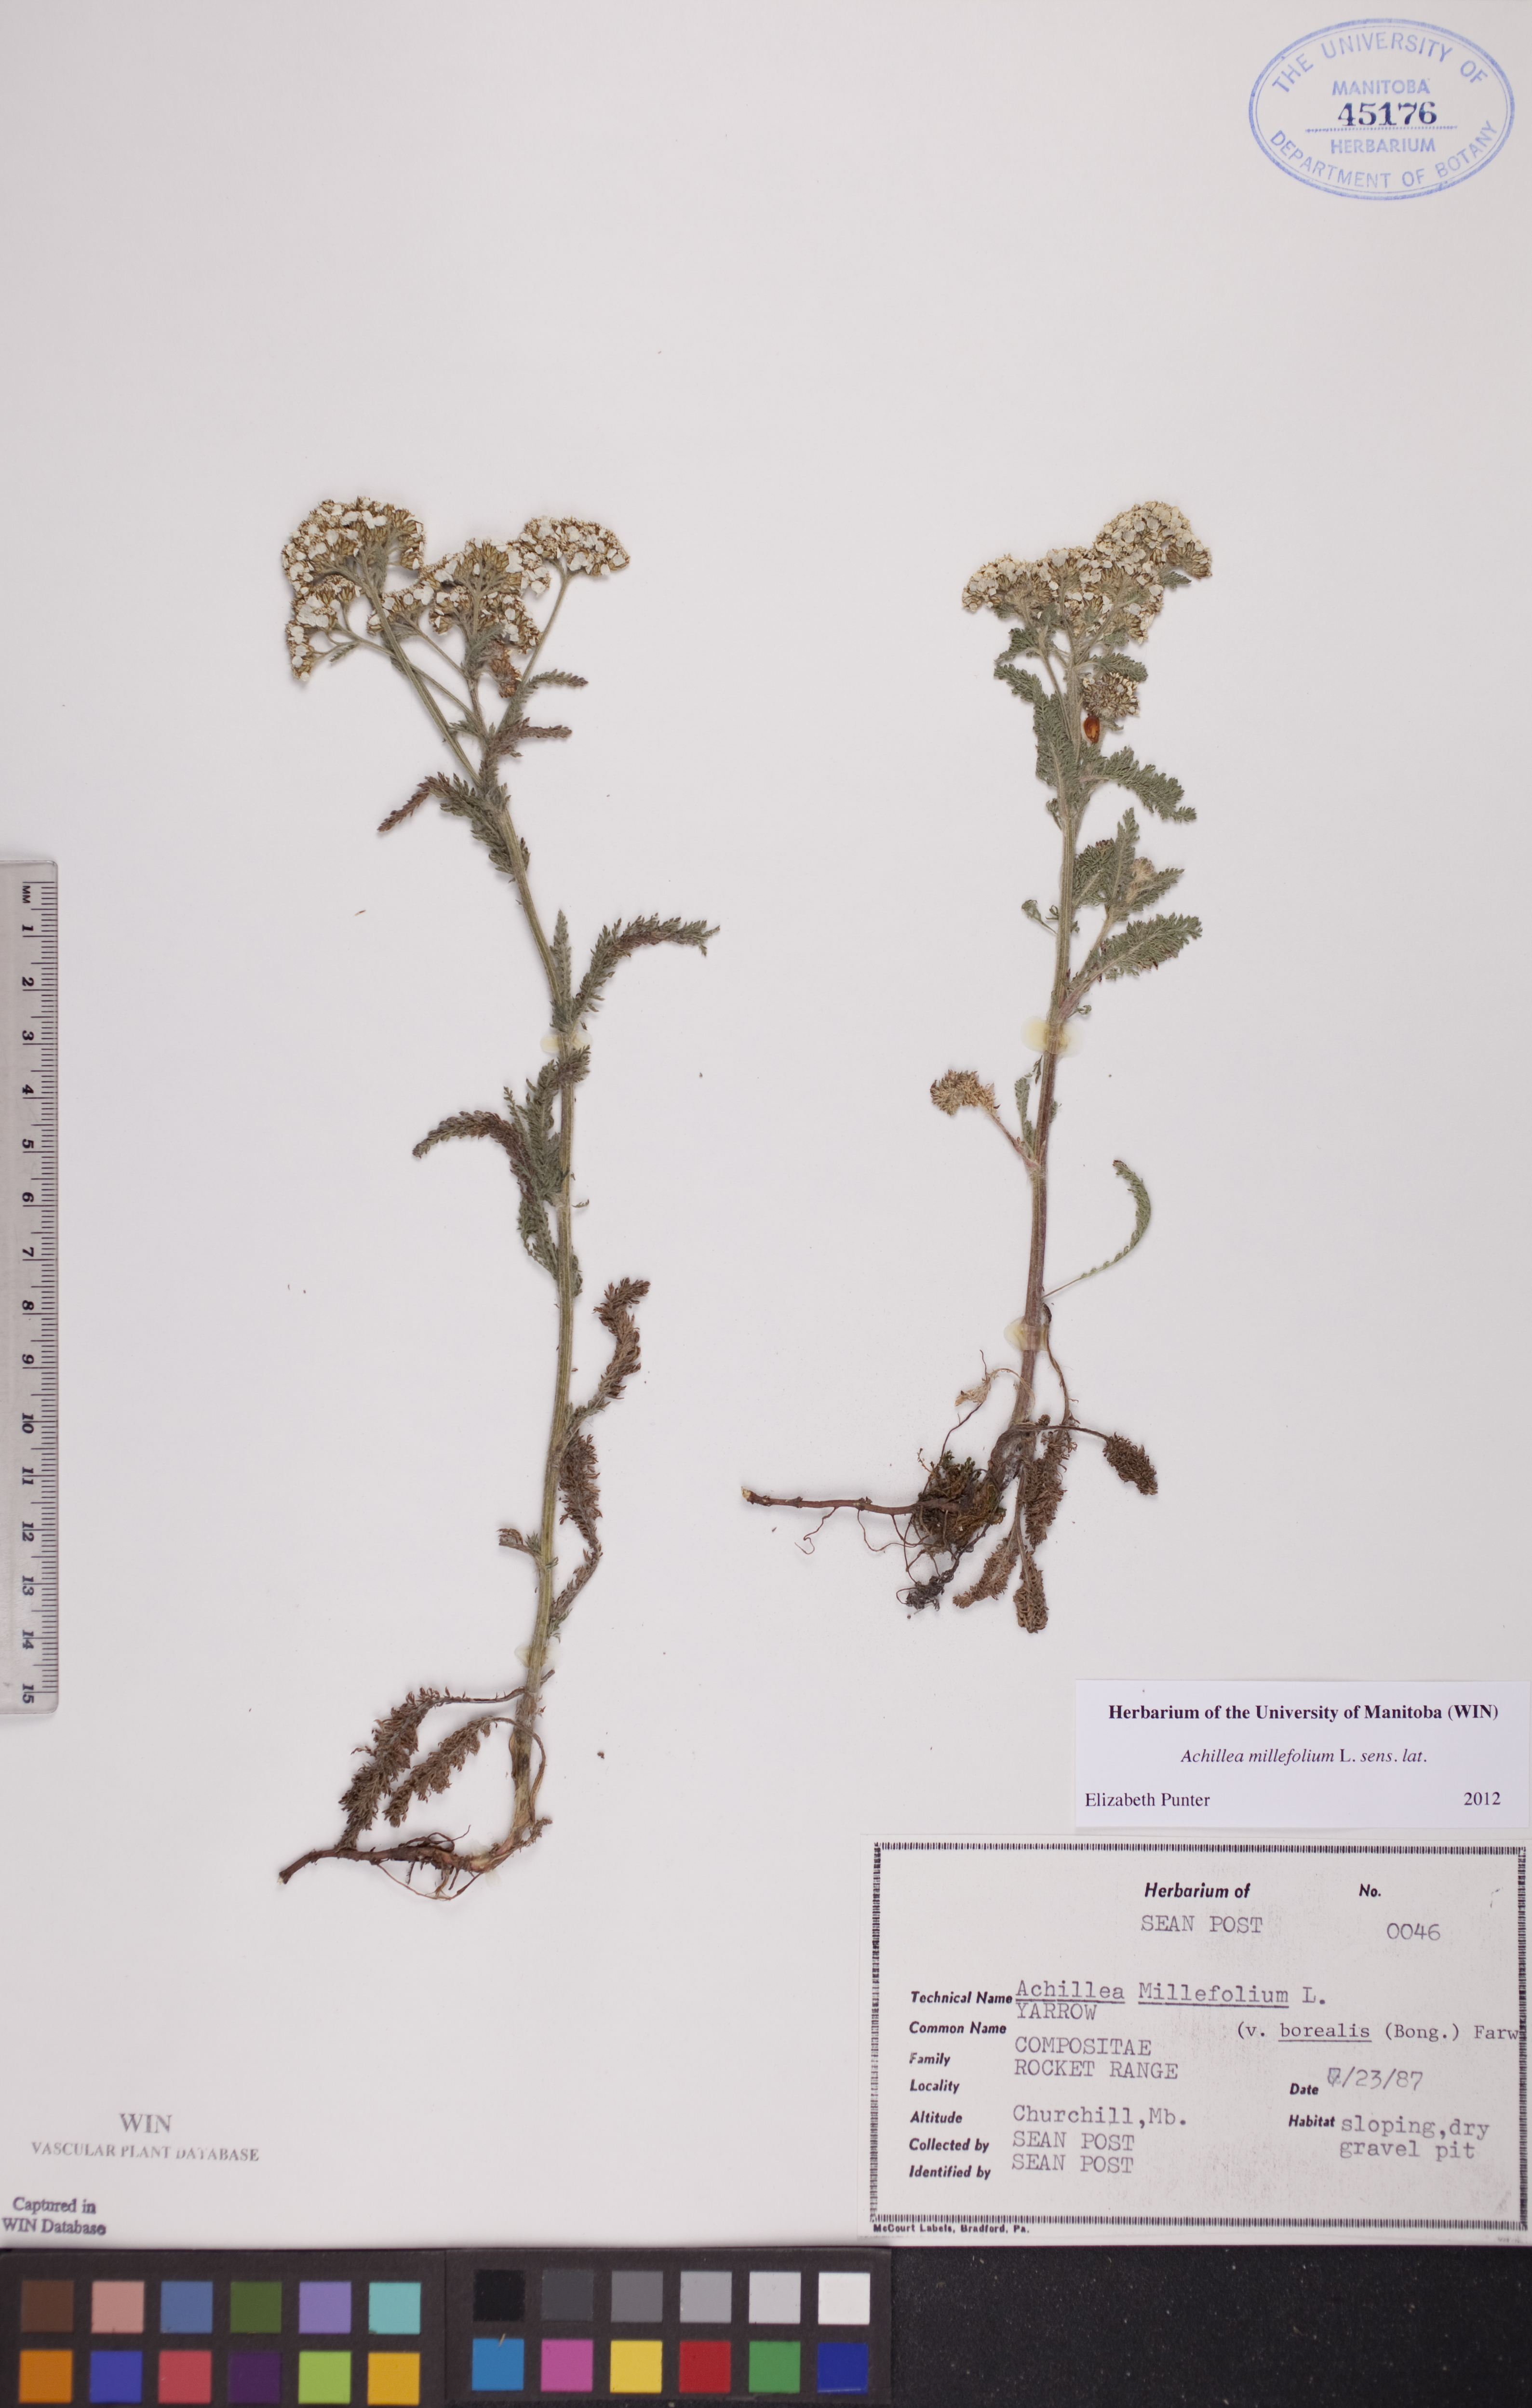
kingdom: Plantae
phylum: Tracheophyta
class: Magnoliopsida
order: Asterales
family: Asteraceae
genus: Achillea
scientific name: Achillea millefolium
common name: Yarrow
